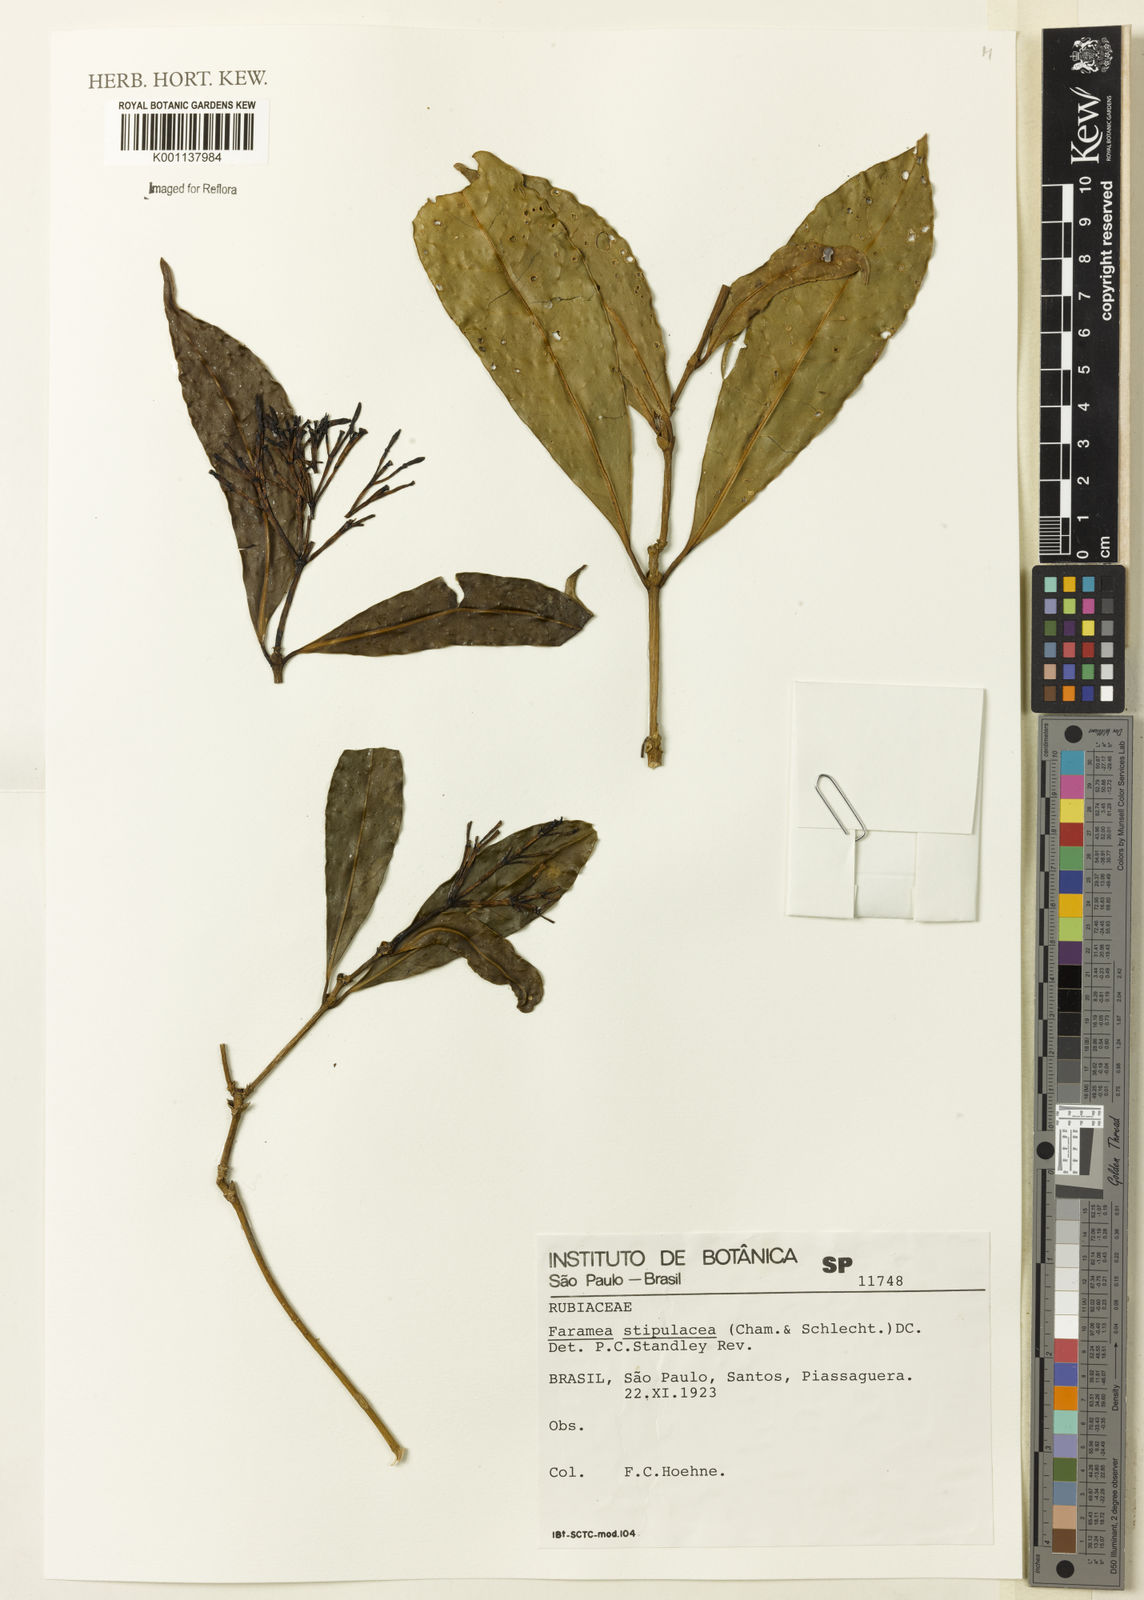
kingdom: Plantae
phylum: Tracheophyta
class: Magnoliopsida
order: Gentianales
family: Rubiaceae
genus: Faramea
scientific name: Faramea stipulacea
